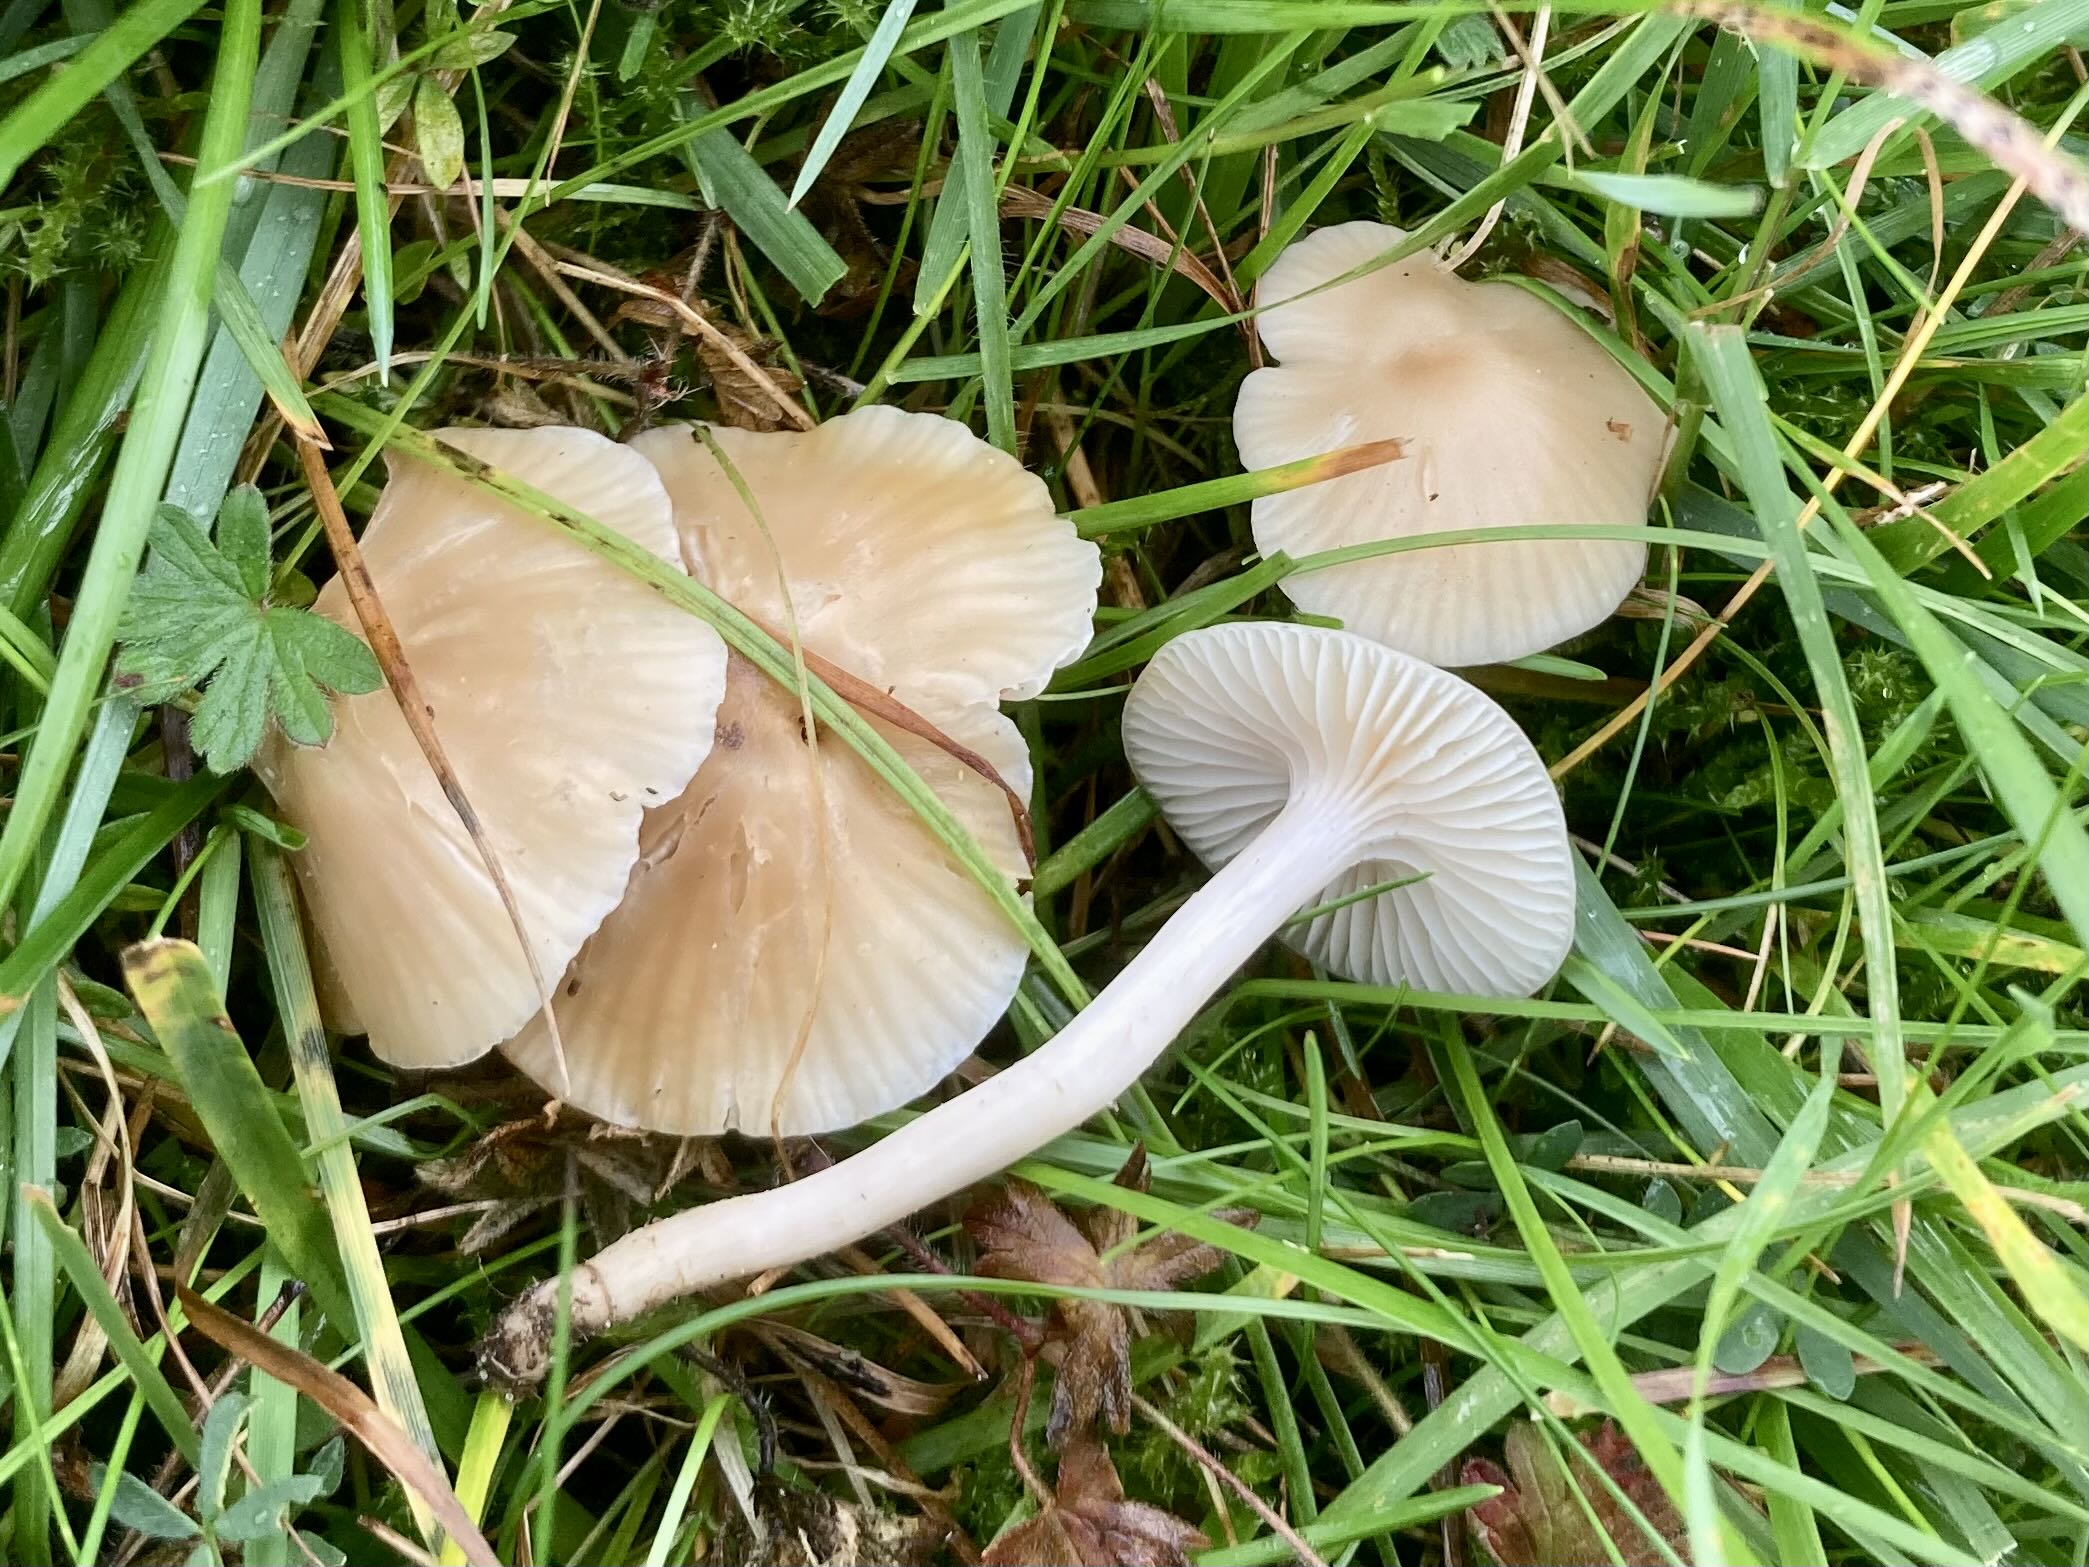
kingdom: Fungi
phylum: Basidiomycota
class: Agaricomycetes
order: Agaricales
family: Hygrophoraceae
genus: Cuphophyllus
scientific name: Cuphophyllus virgineus
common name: isabella-vokshat
